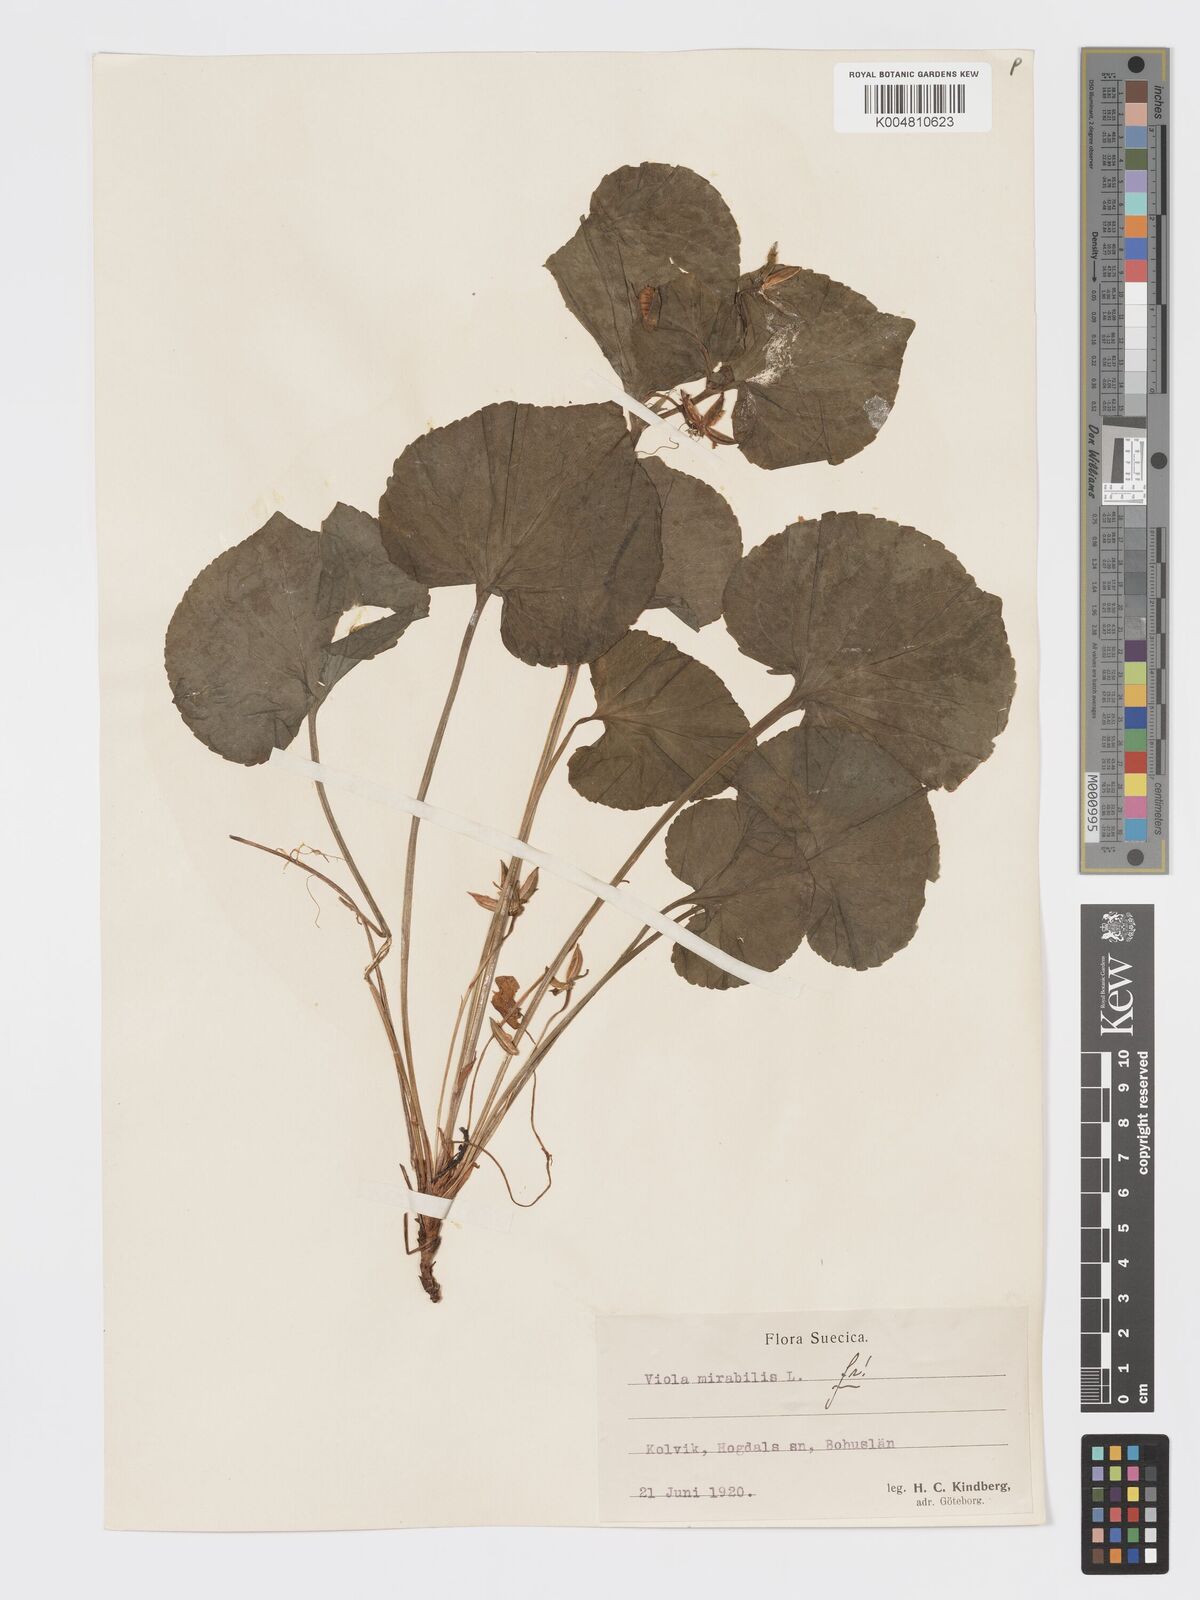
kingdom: Plantae
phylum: Tracheophyta
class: Magnoliopsida
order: Malpighiales
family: Violaceae
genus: Viola
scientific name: Viola mirabilis
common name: Wonder violet
